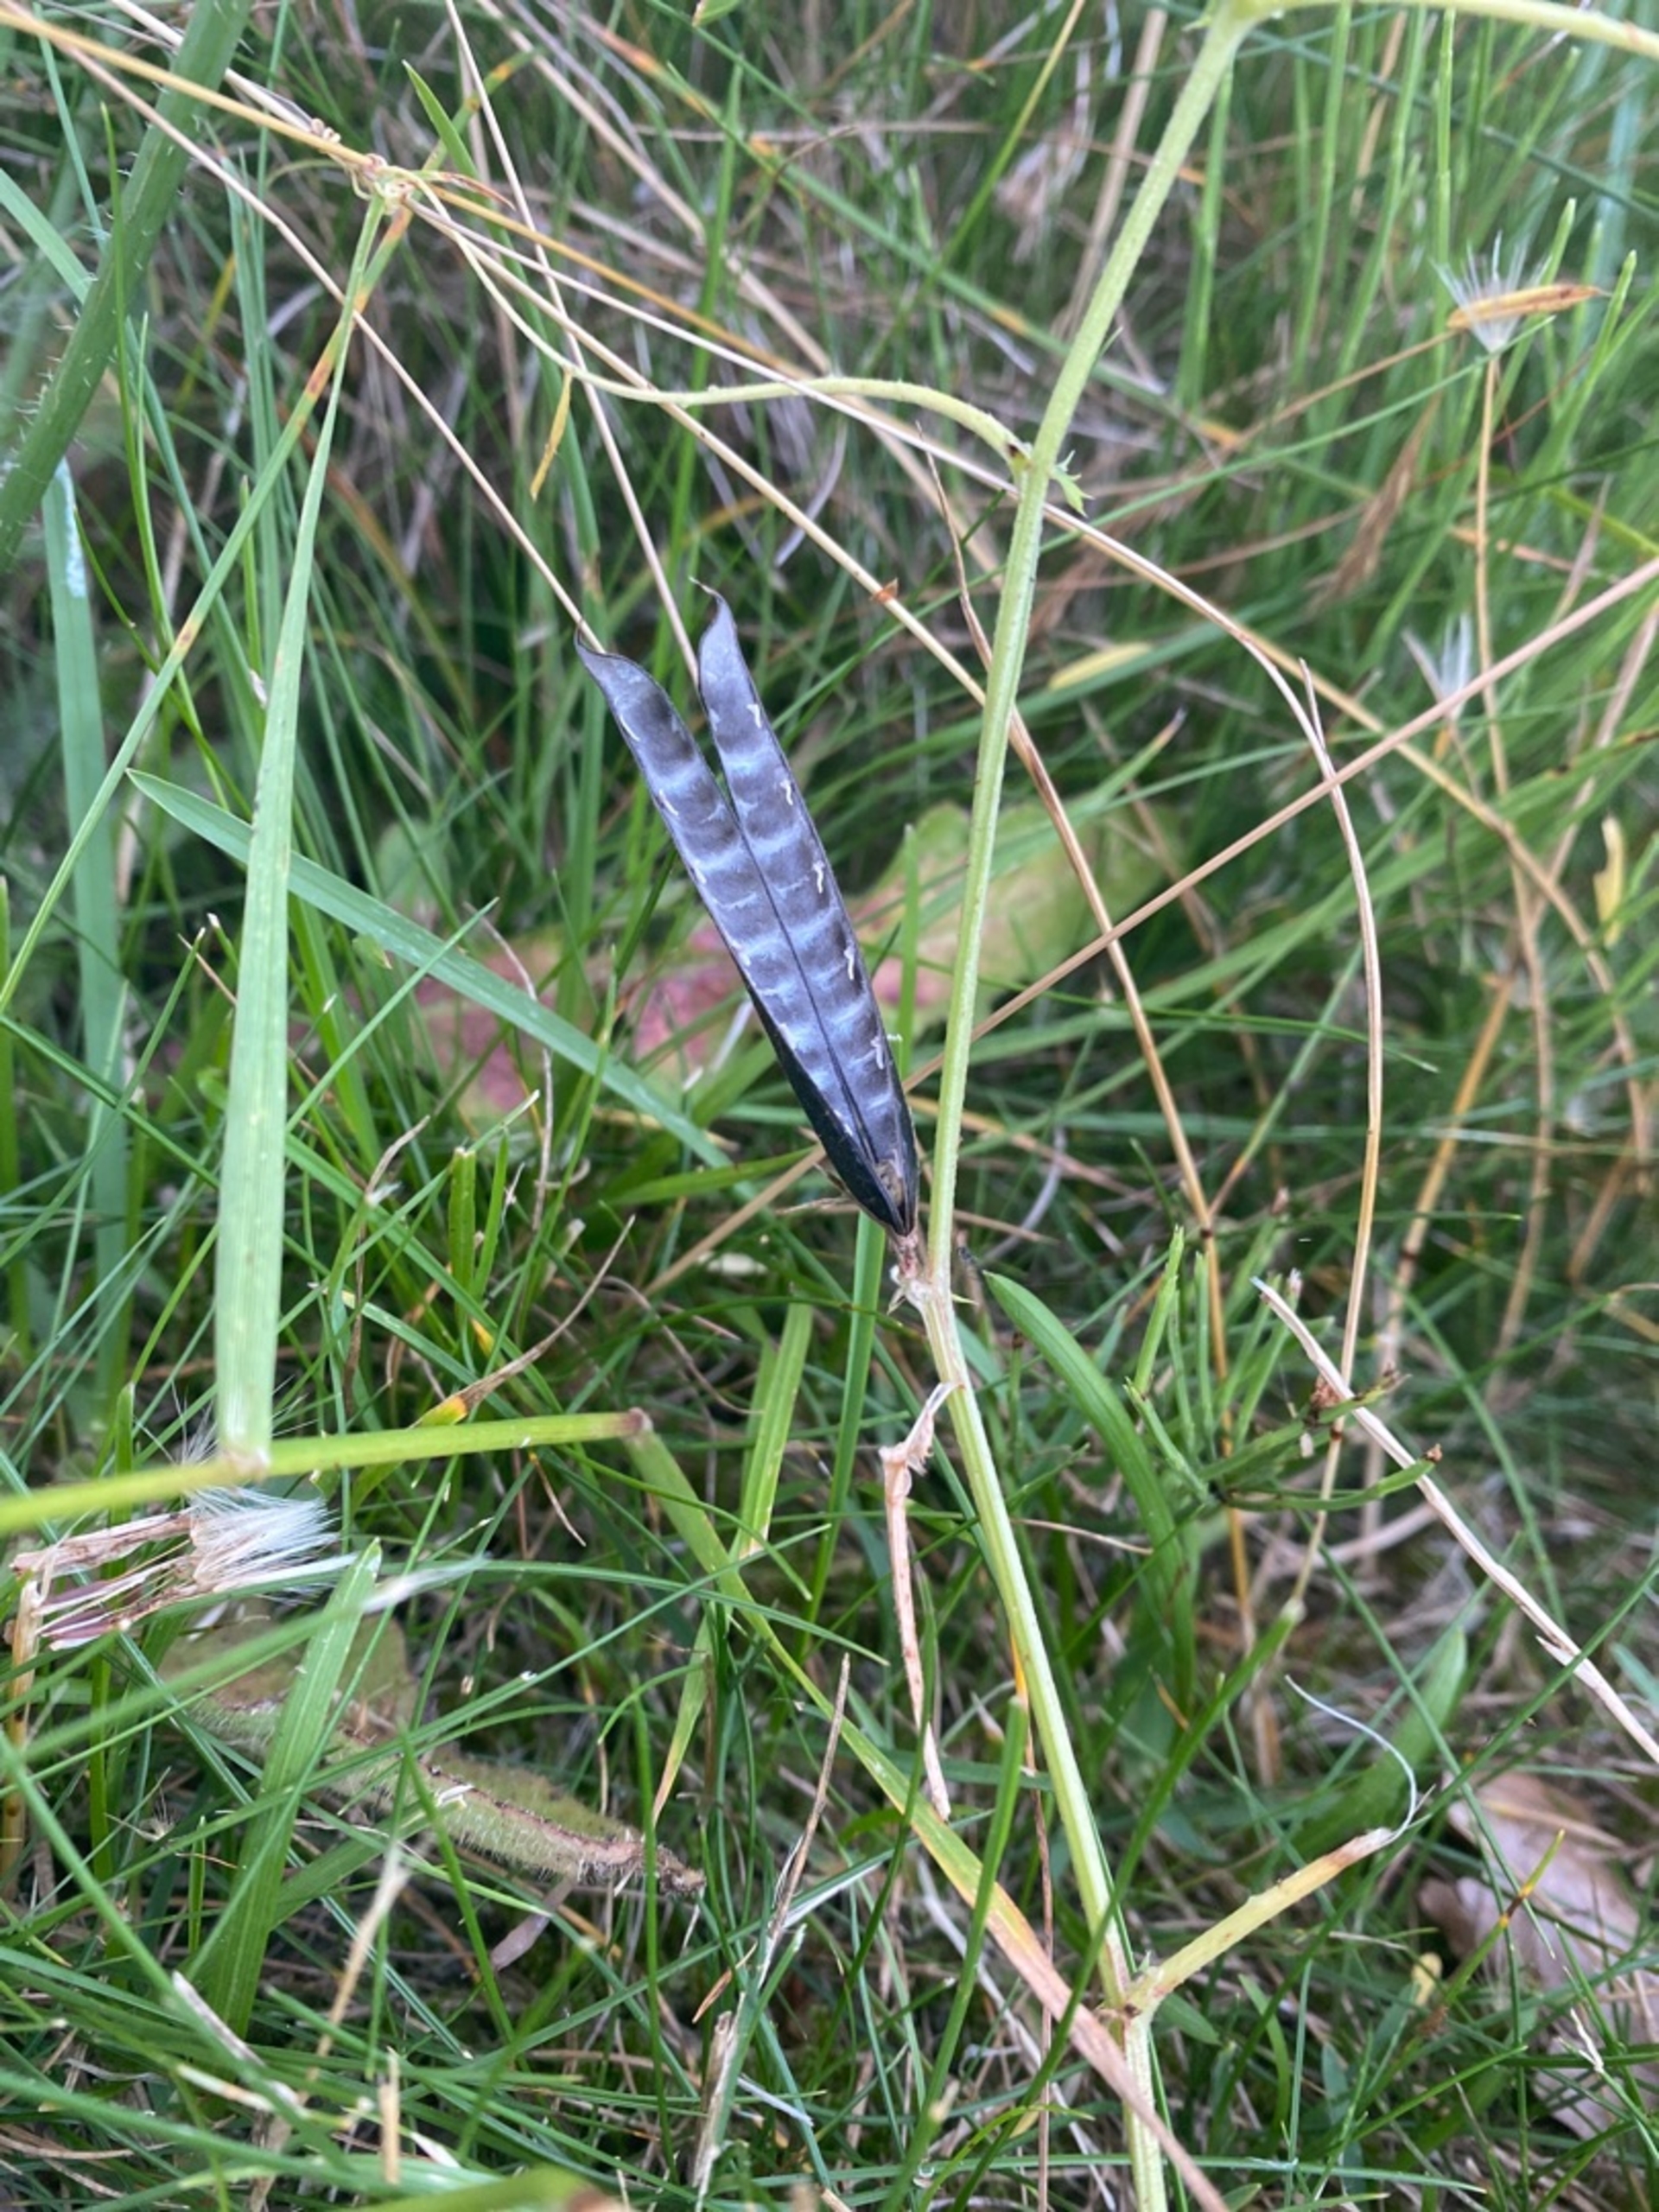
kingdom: Plantae
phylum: Tracheophyta
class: Magnoliopsida
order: Fabales
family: Fabaceae
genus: Vicia
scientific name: Vicia sativa
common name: Smalbladet vikke
